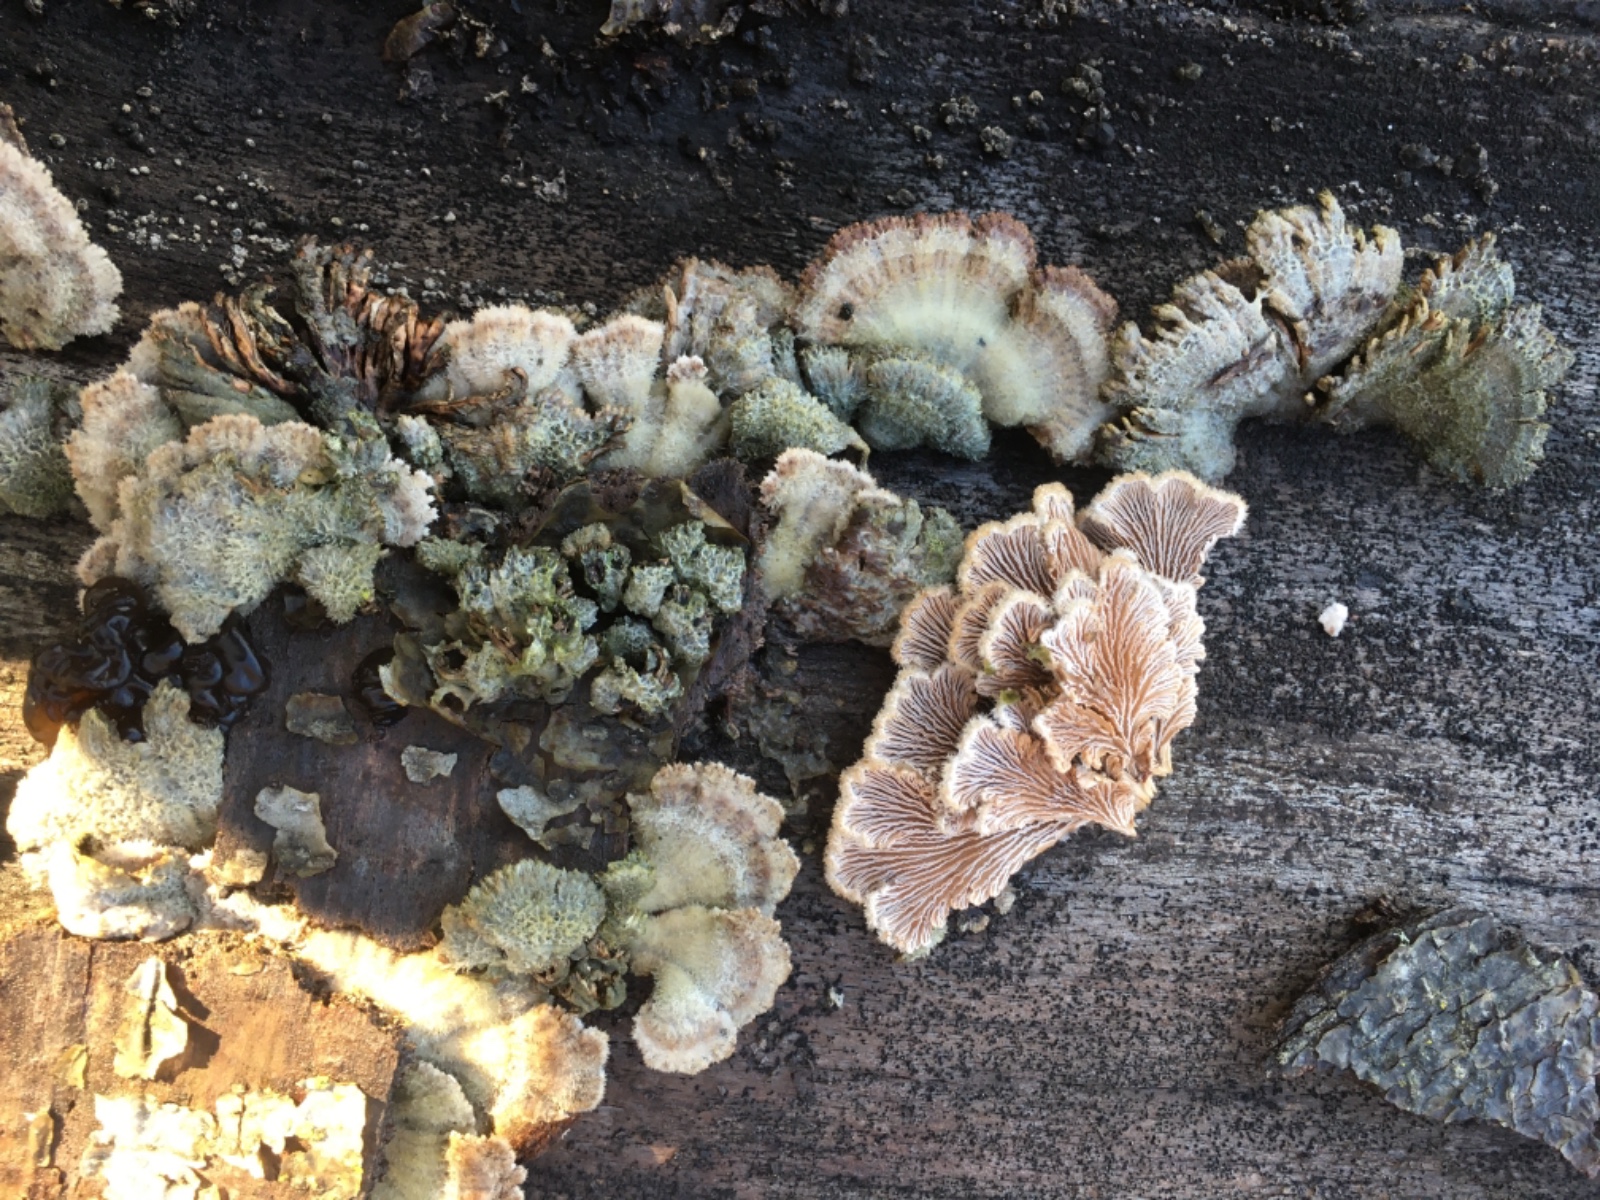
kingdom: Fungi
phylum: Basidiomycota
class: Agaricomycetes
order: Agaricales
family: Schizophyllaceae
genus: Schizophyllum
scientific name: Schizophyllum commune
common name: kløvblad
